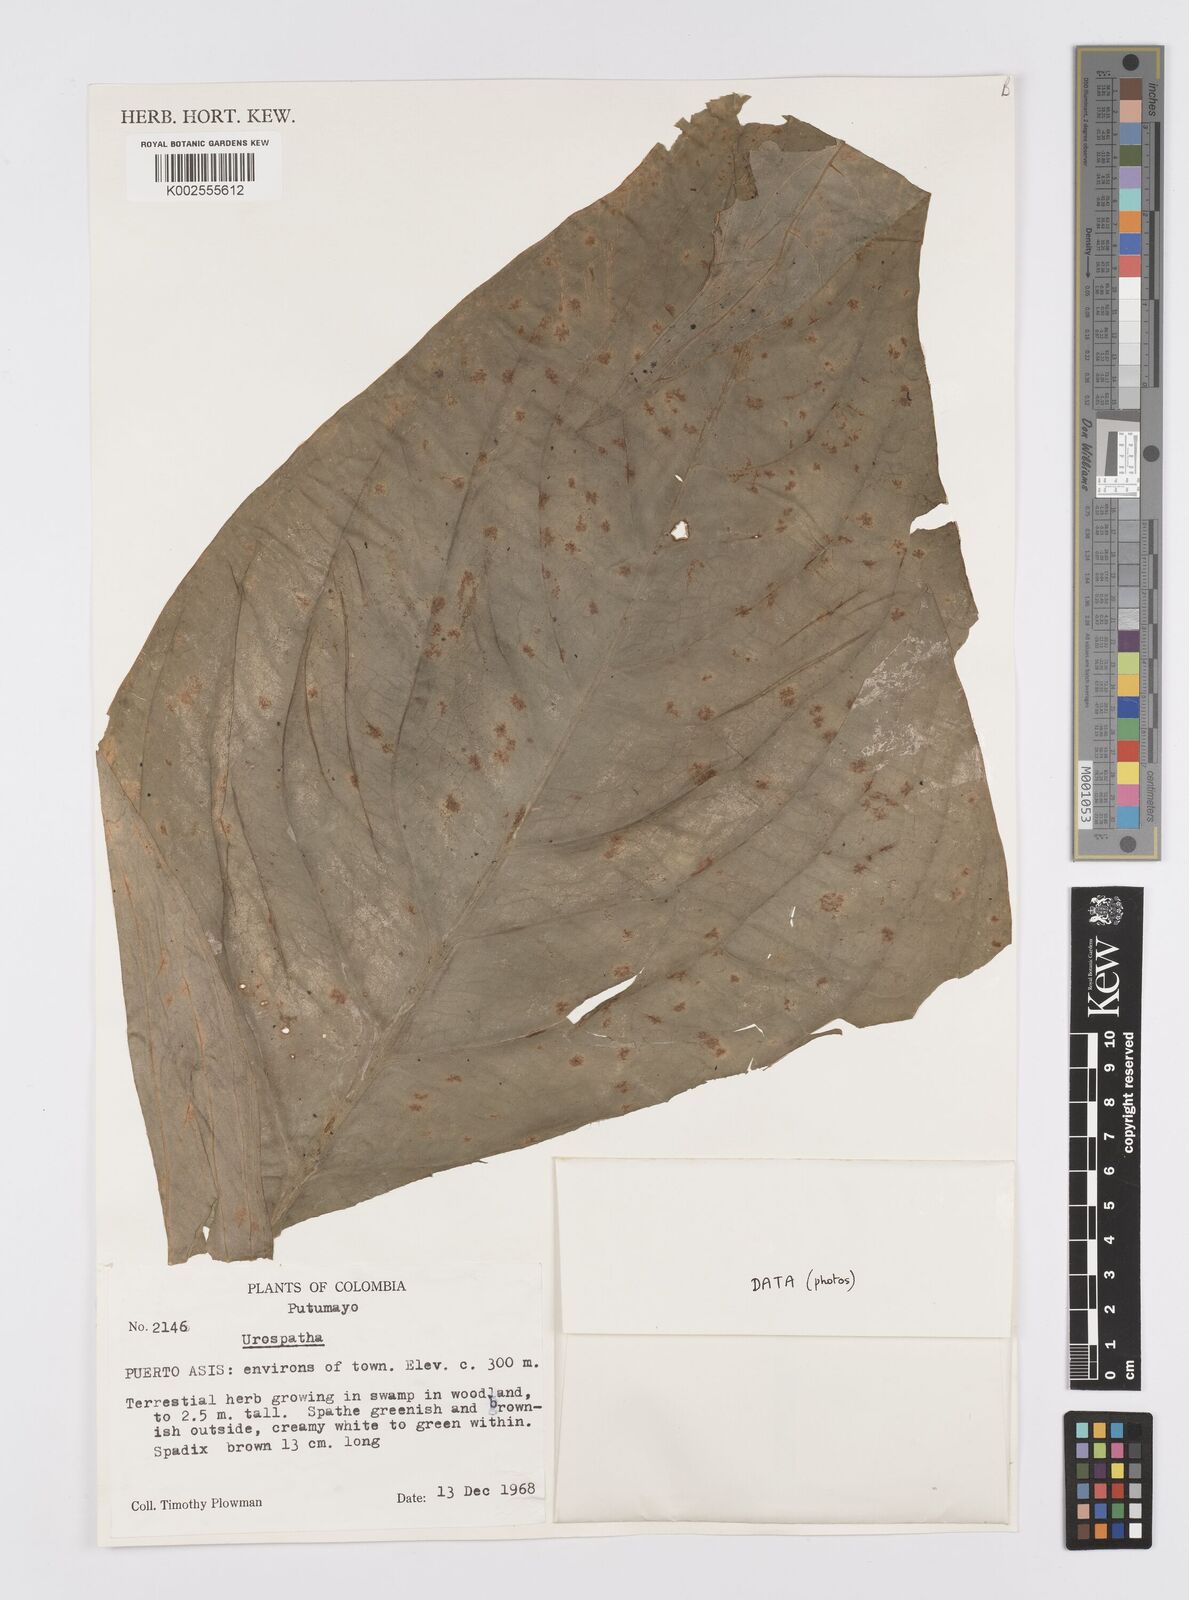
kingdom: Plantae
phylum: Tracheophyta
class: Liliopsida
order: Alismatales
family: Araceae
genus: Urospatha
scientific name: Urospatha
